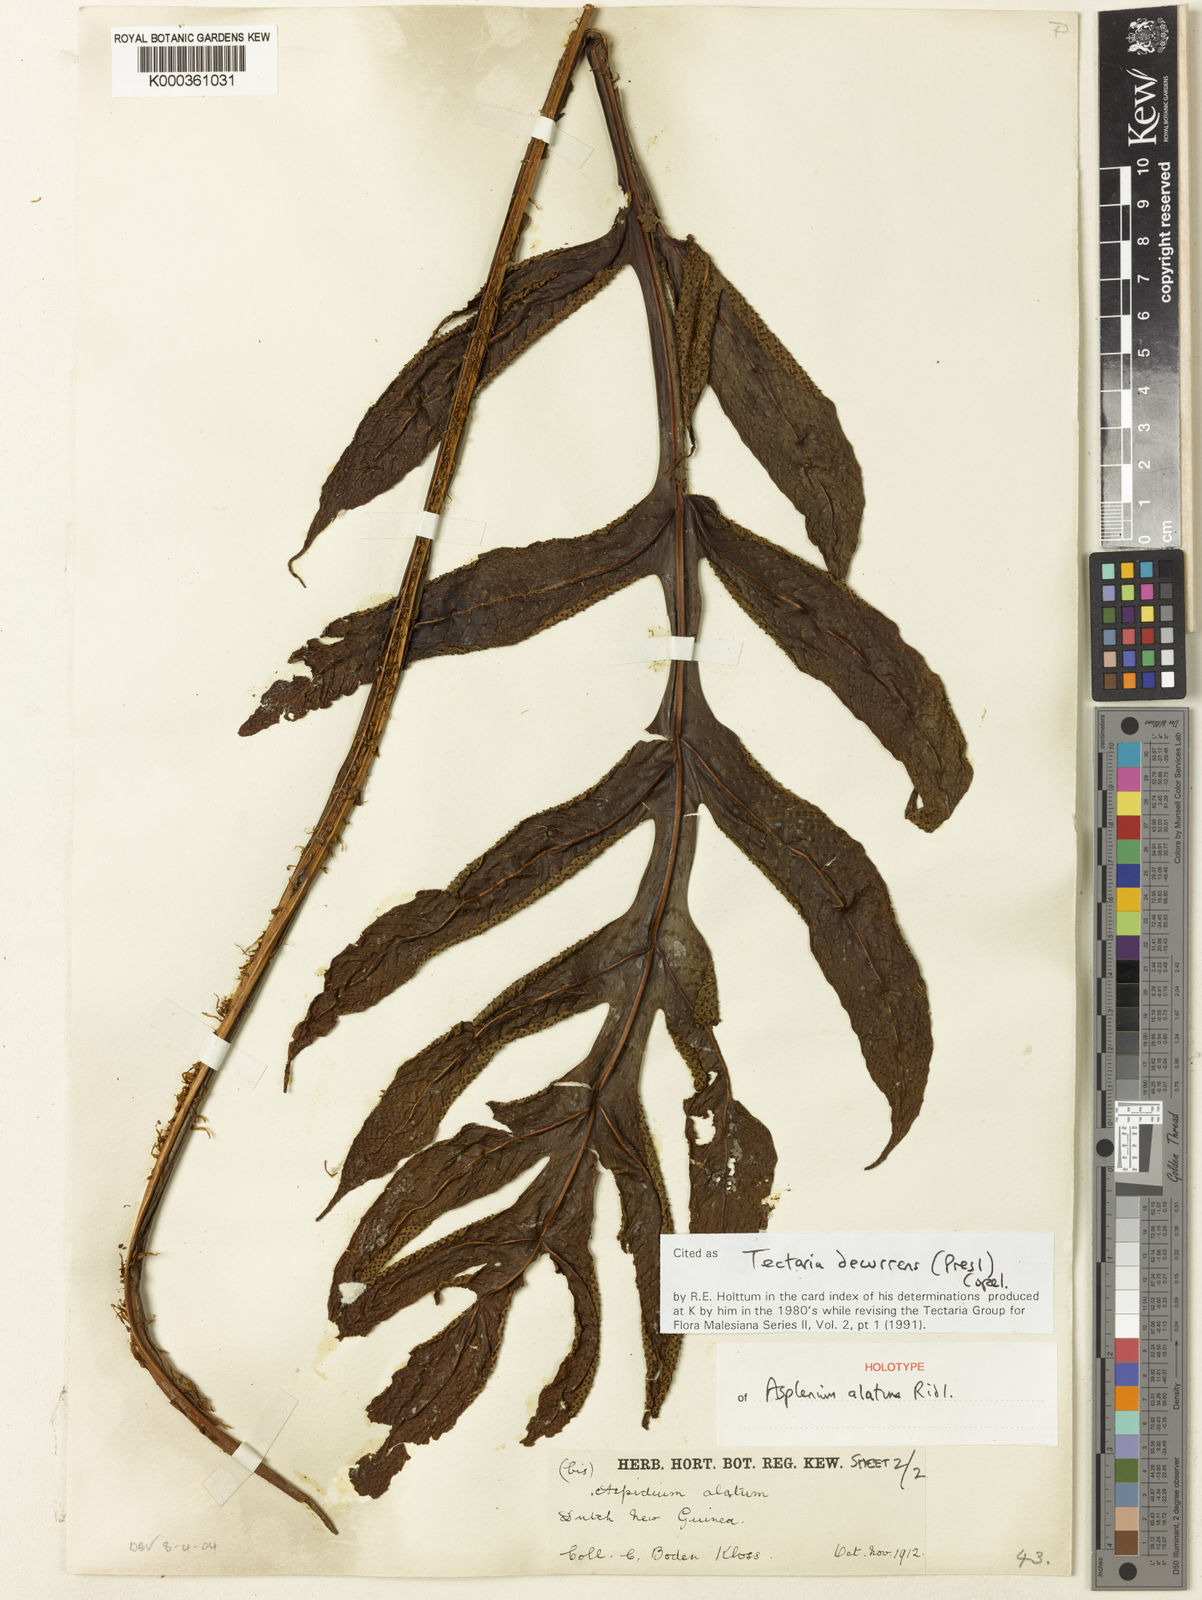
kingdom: Plantae
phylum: Tracheophyta
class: Polypodiopsida
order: Polypodiales
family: Tectariaceae
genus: Tectaria
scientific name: Tectaria decurrens
